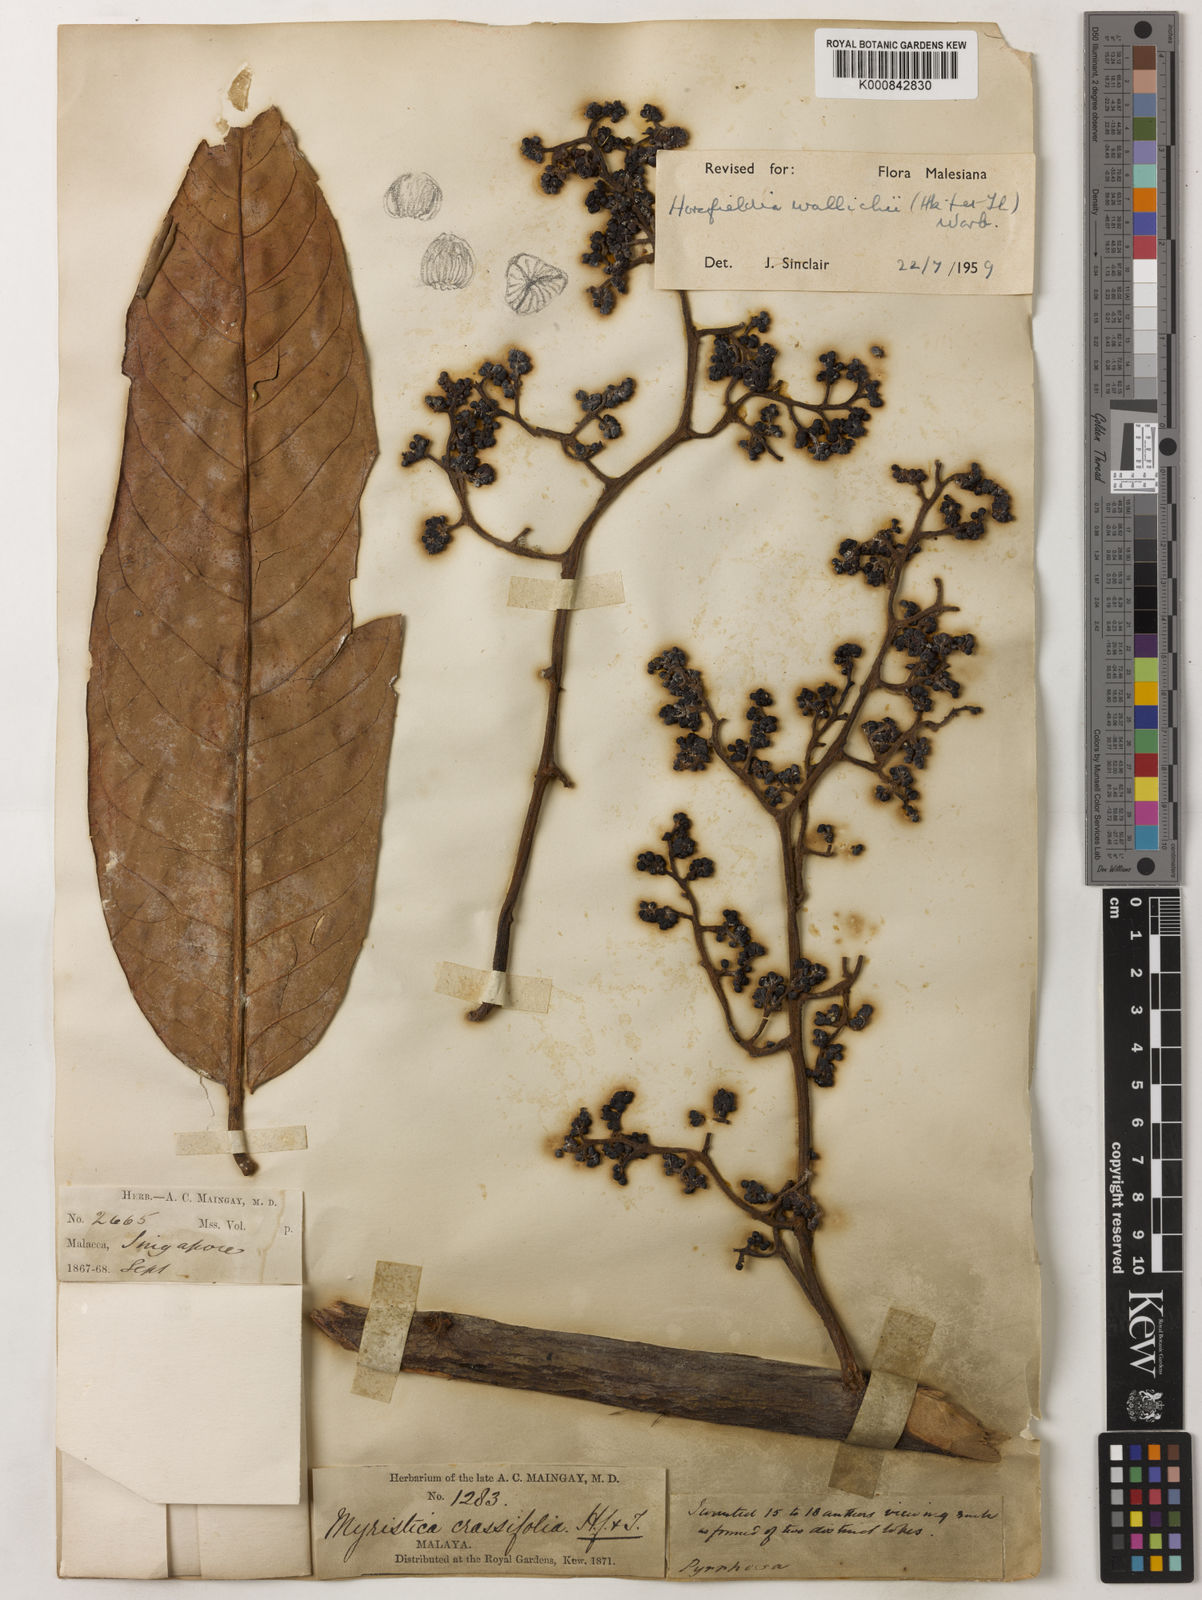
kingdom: Plantae
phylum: Tracheophyta
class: Magnoliopsida
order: Magnoliales
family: Myristicaceae
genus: Horsfieldia
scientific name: Horsfieldia wallichii
